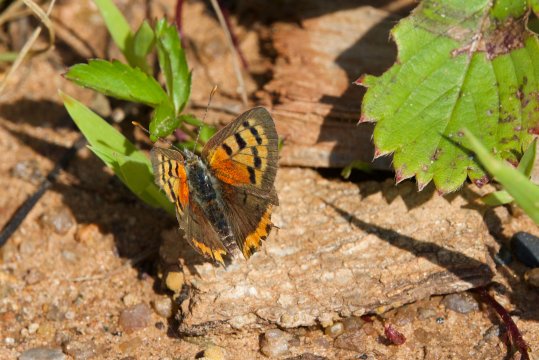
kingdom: Animalia
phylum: Arthropoda
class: Insecta
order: Lepidoptera
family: Lycaenidae
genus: Lycaena
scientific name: Lycaena phlaeas
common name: American Copper
